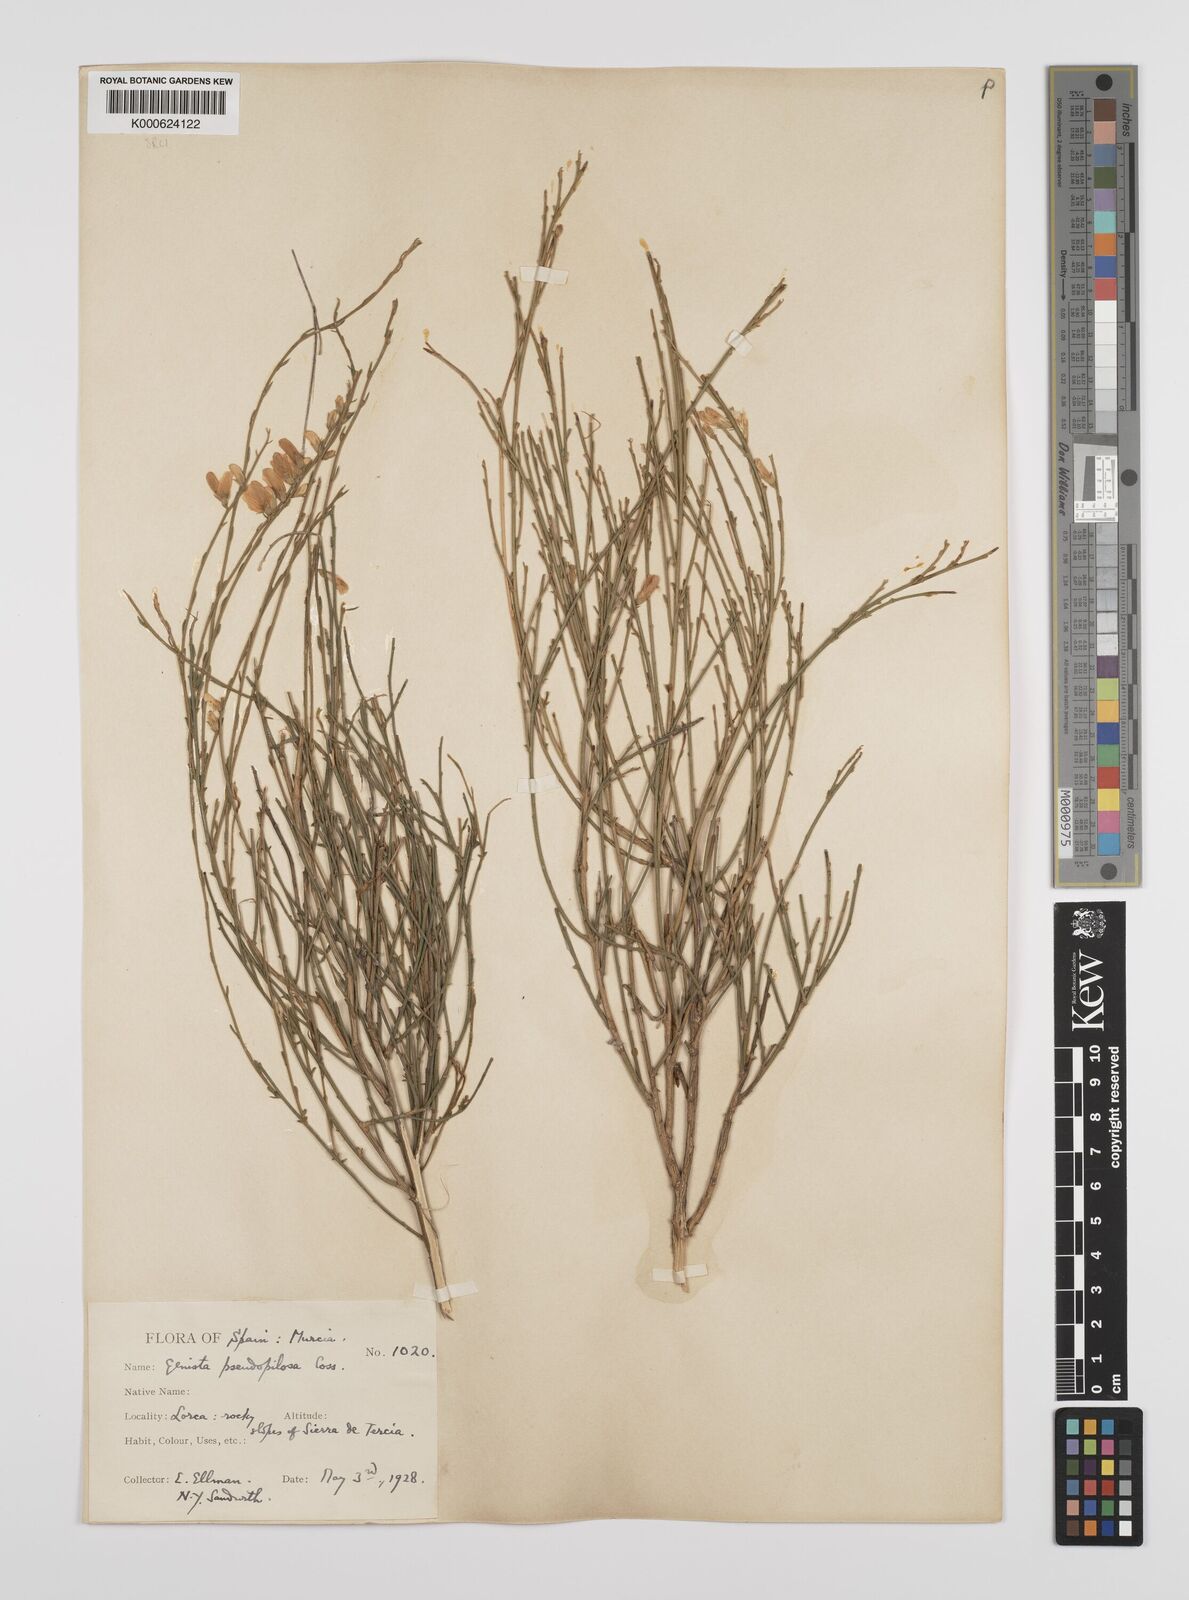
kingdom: Plantae
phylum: Tracheophyta
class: Magnoliopsida
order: Fabales
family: Fabaceae
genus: Genista
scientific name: Genista pseudopilosa
